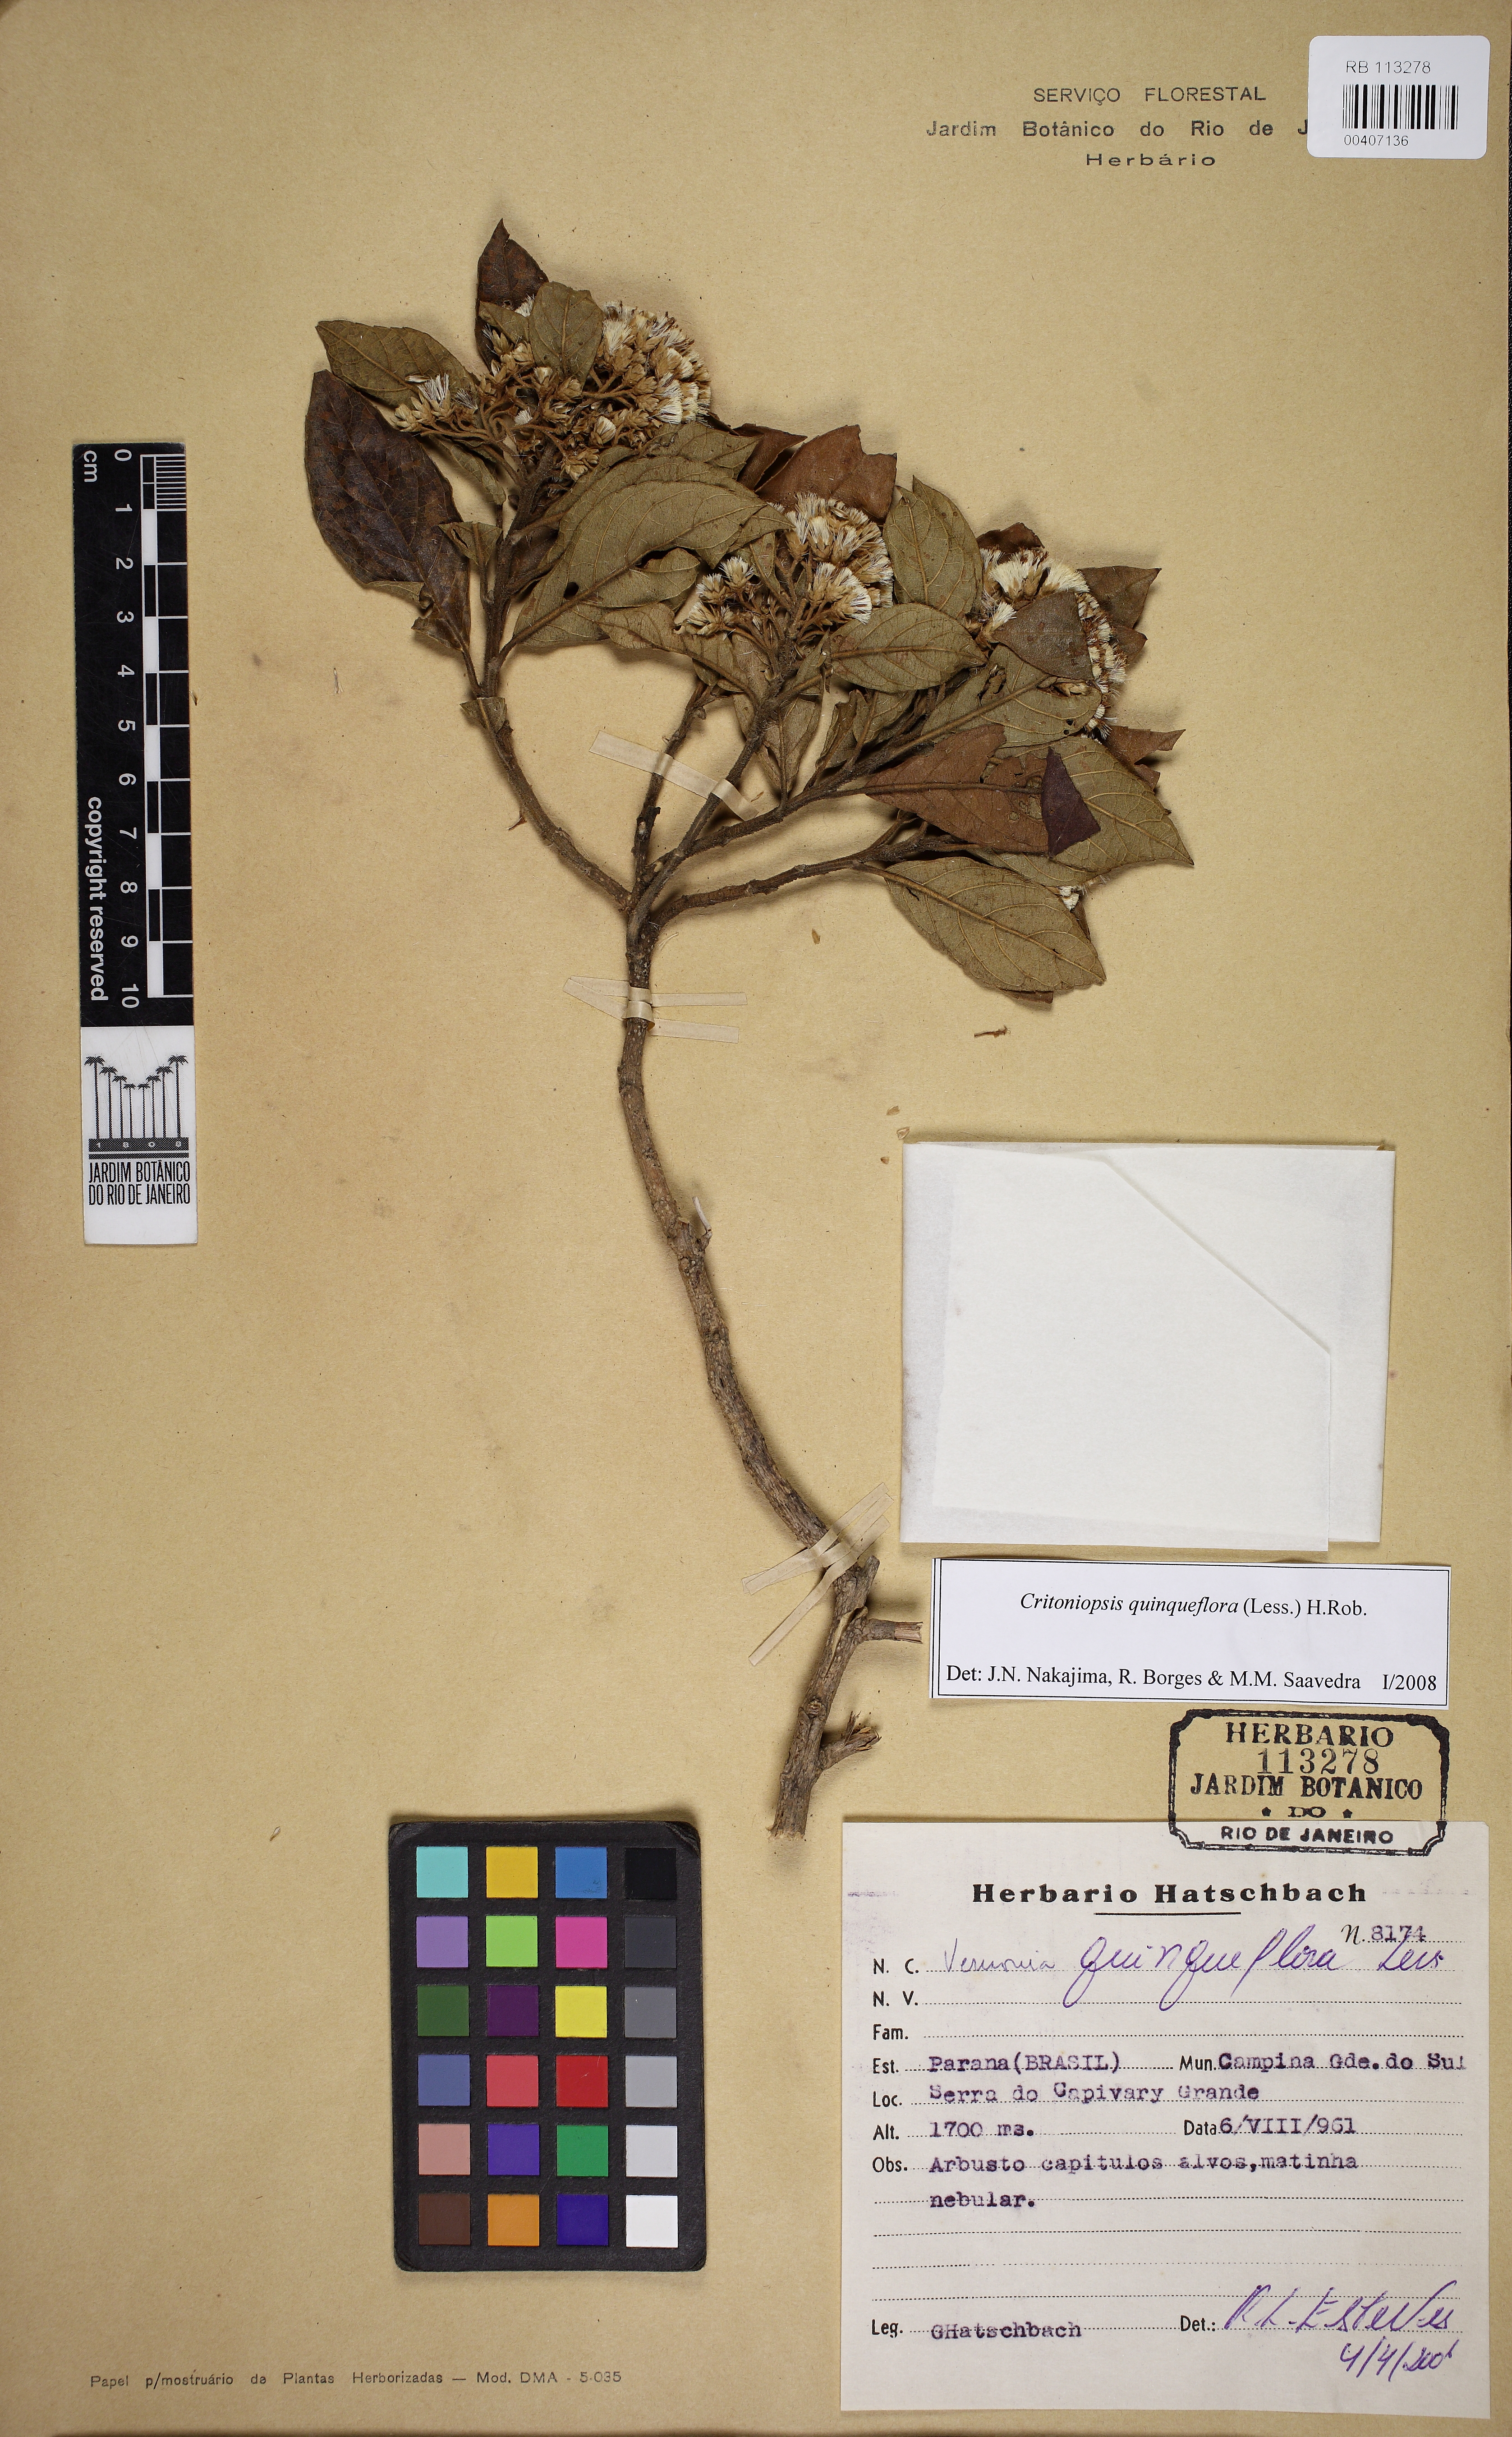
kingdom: Plantae
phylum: Tracheophyta
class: Magnoliopsida
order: Asterales
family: Asteraceae
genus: Critoniopsis
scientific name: Critoniopsis quinqueflora
